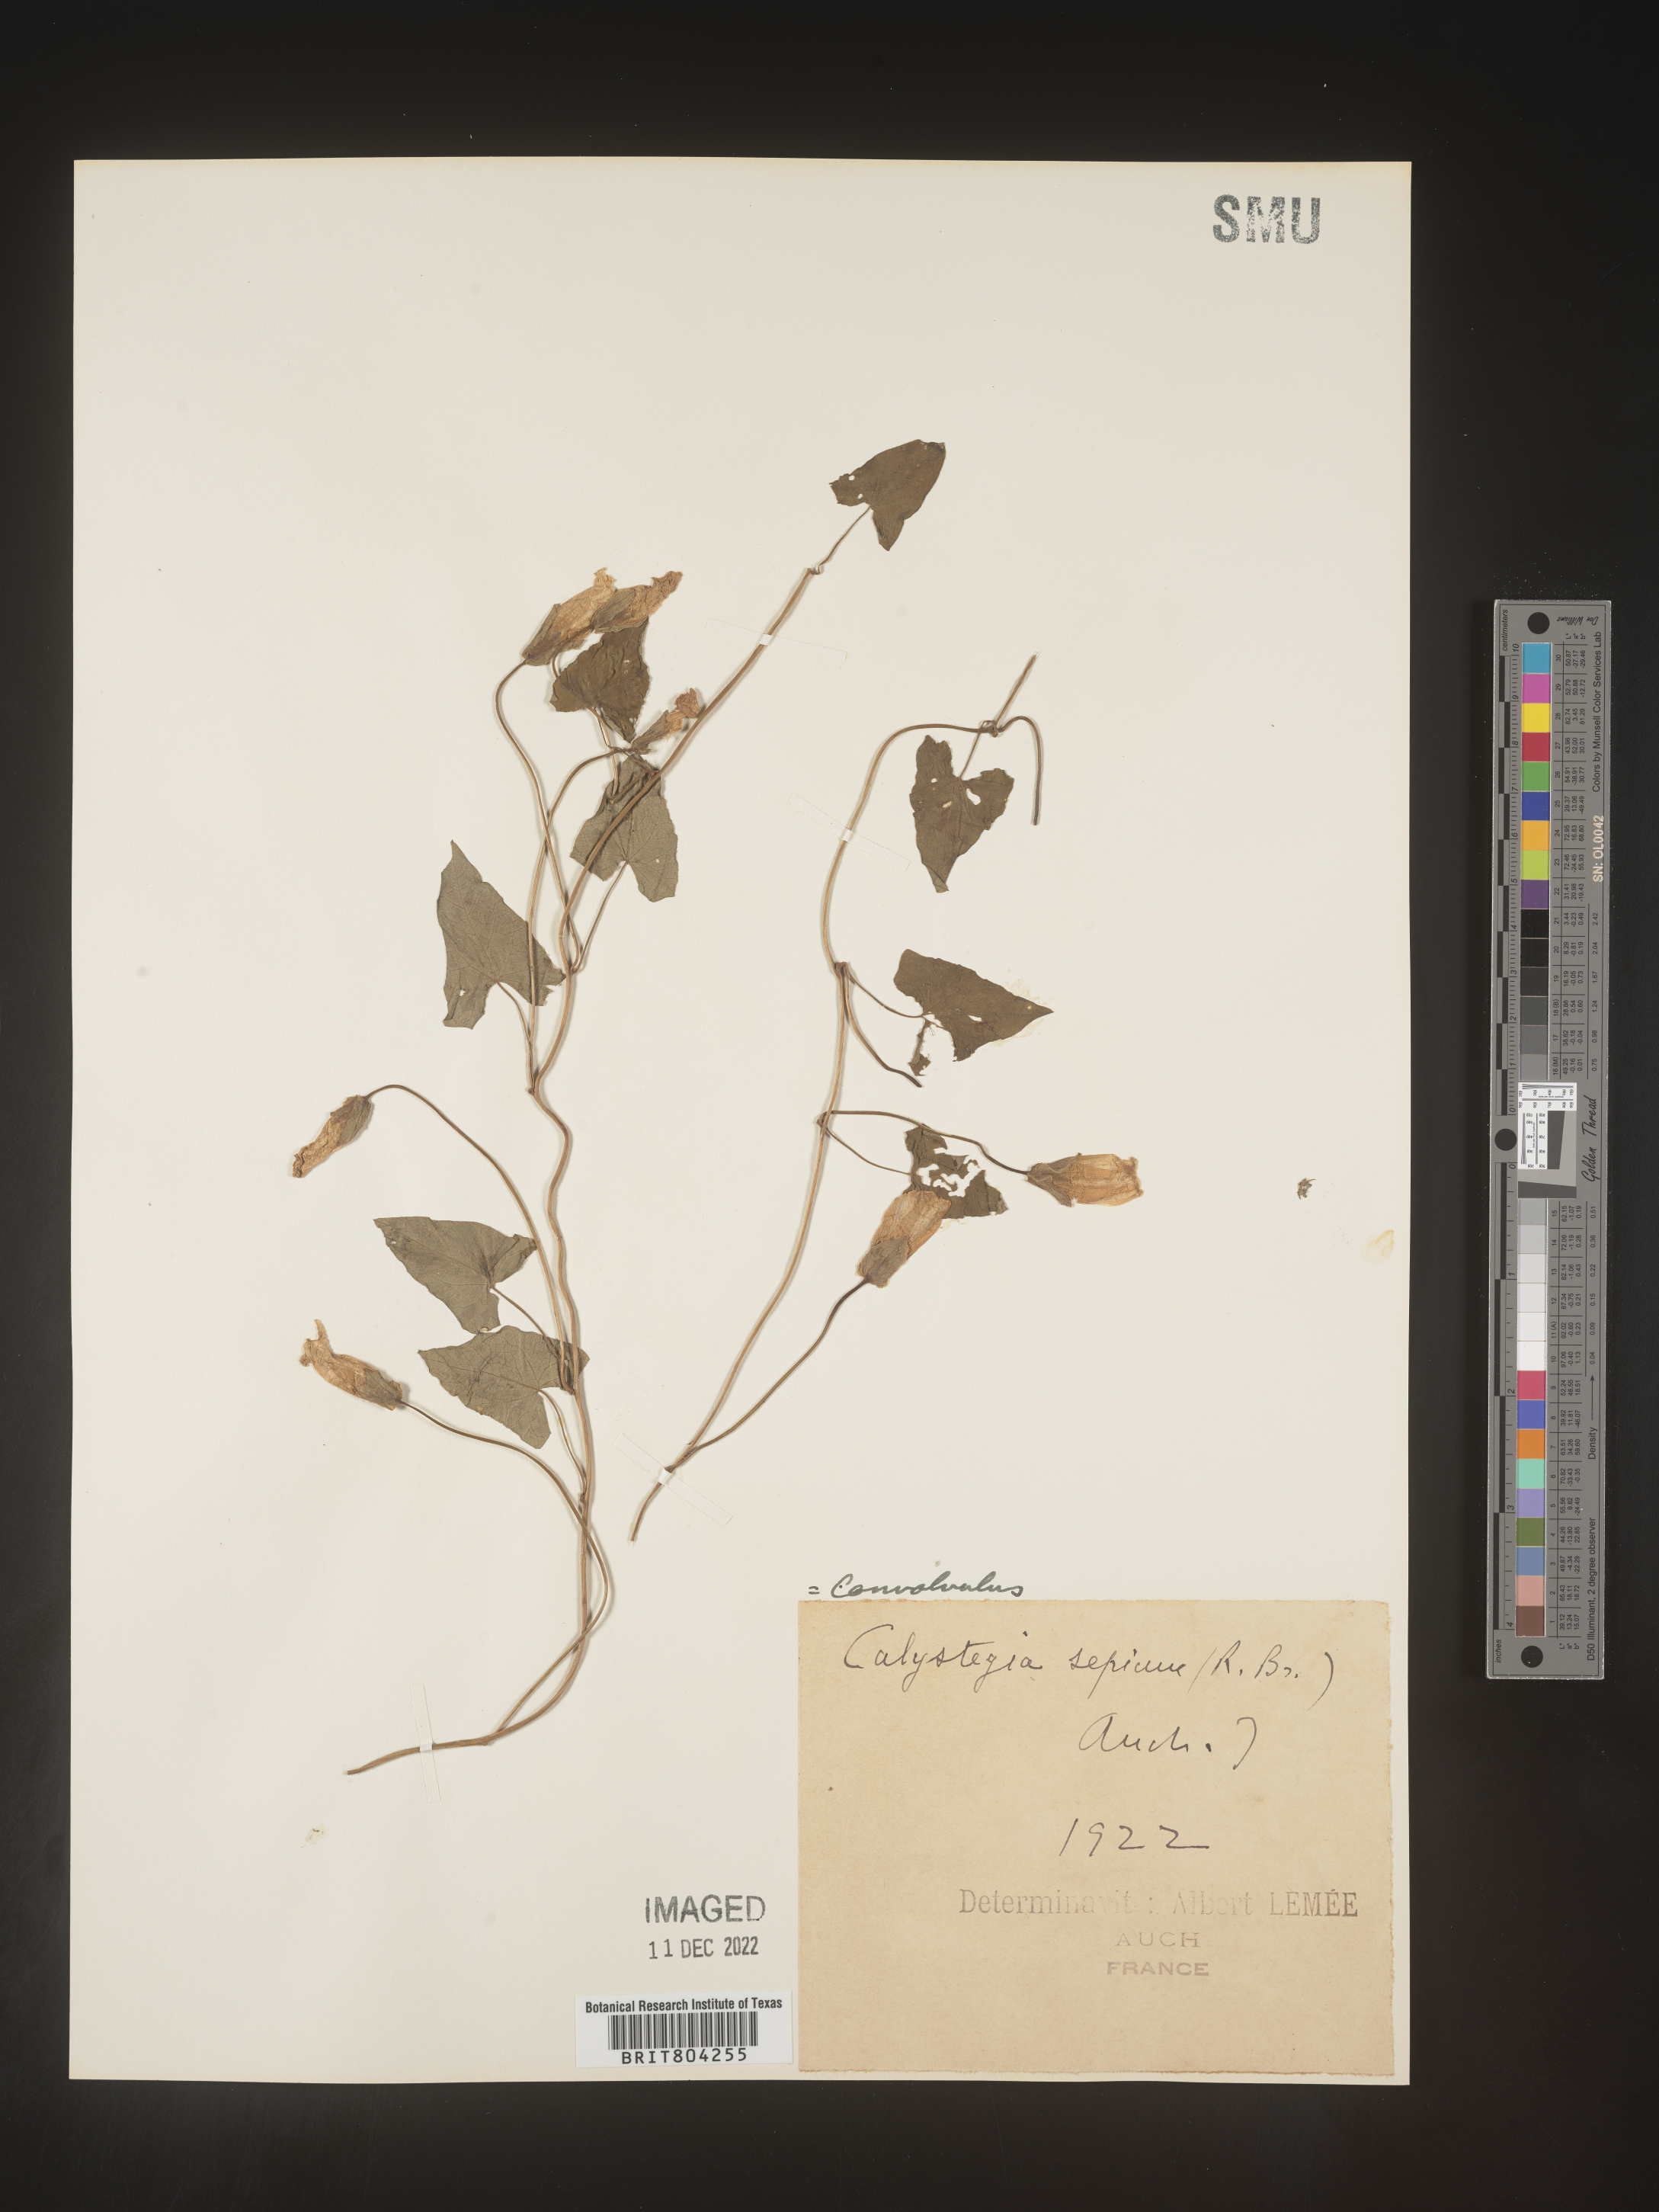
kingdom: Plantae
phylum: Tracheophyta
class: Magnoliopsida
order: Solanales
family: Convolvulaceae
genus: Calystegia
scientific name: Calystegia
